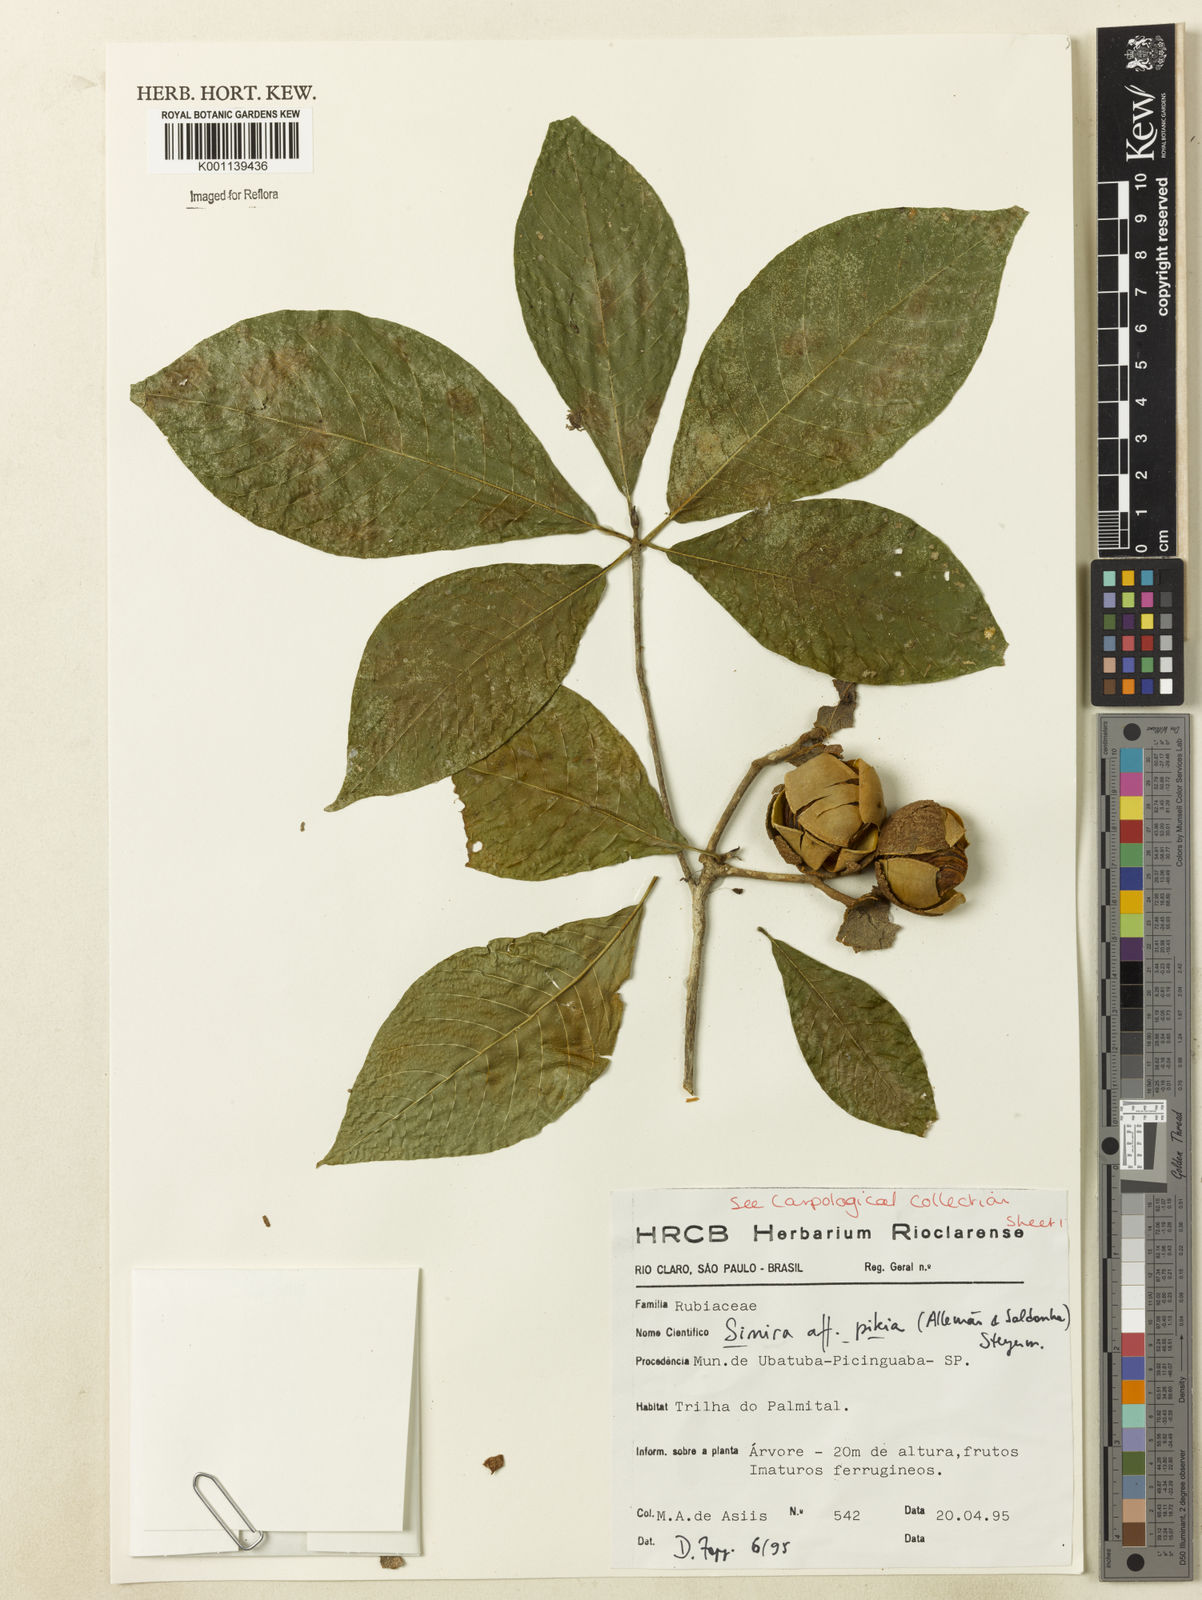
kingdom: Plantae
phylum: Tracheophyta
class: Magnoliopsida
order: Gentianales
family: Rubiaceae
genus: Simira
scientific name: Simira pikia
